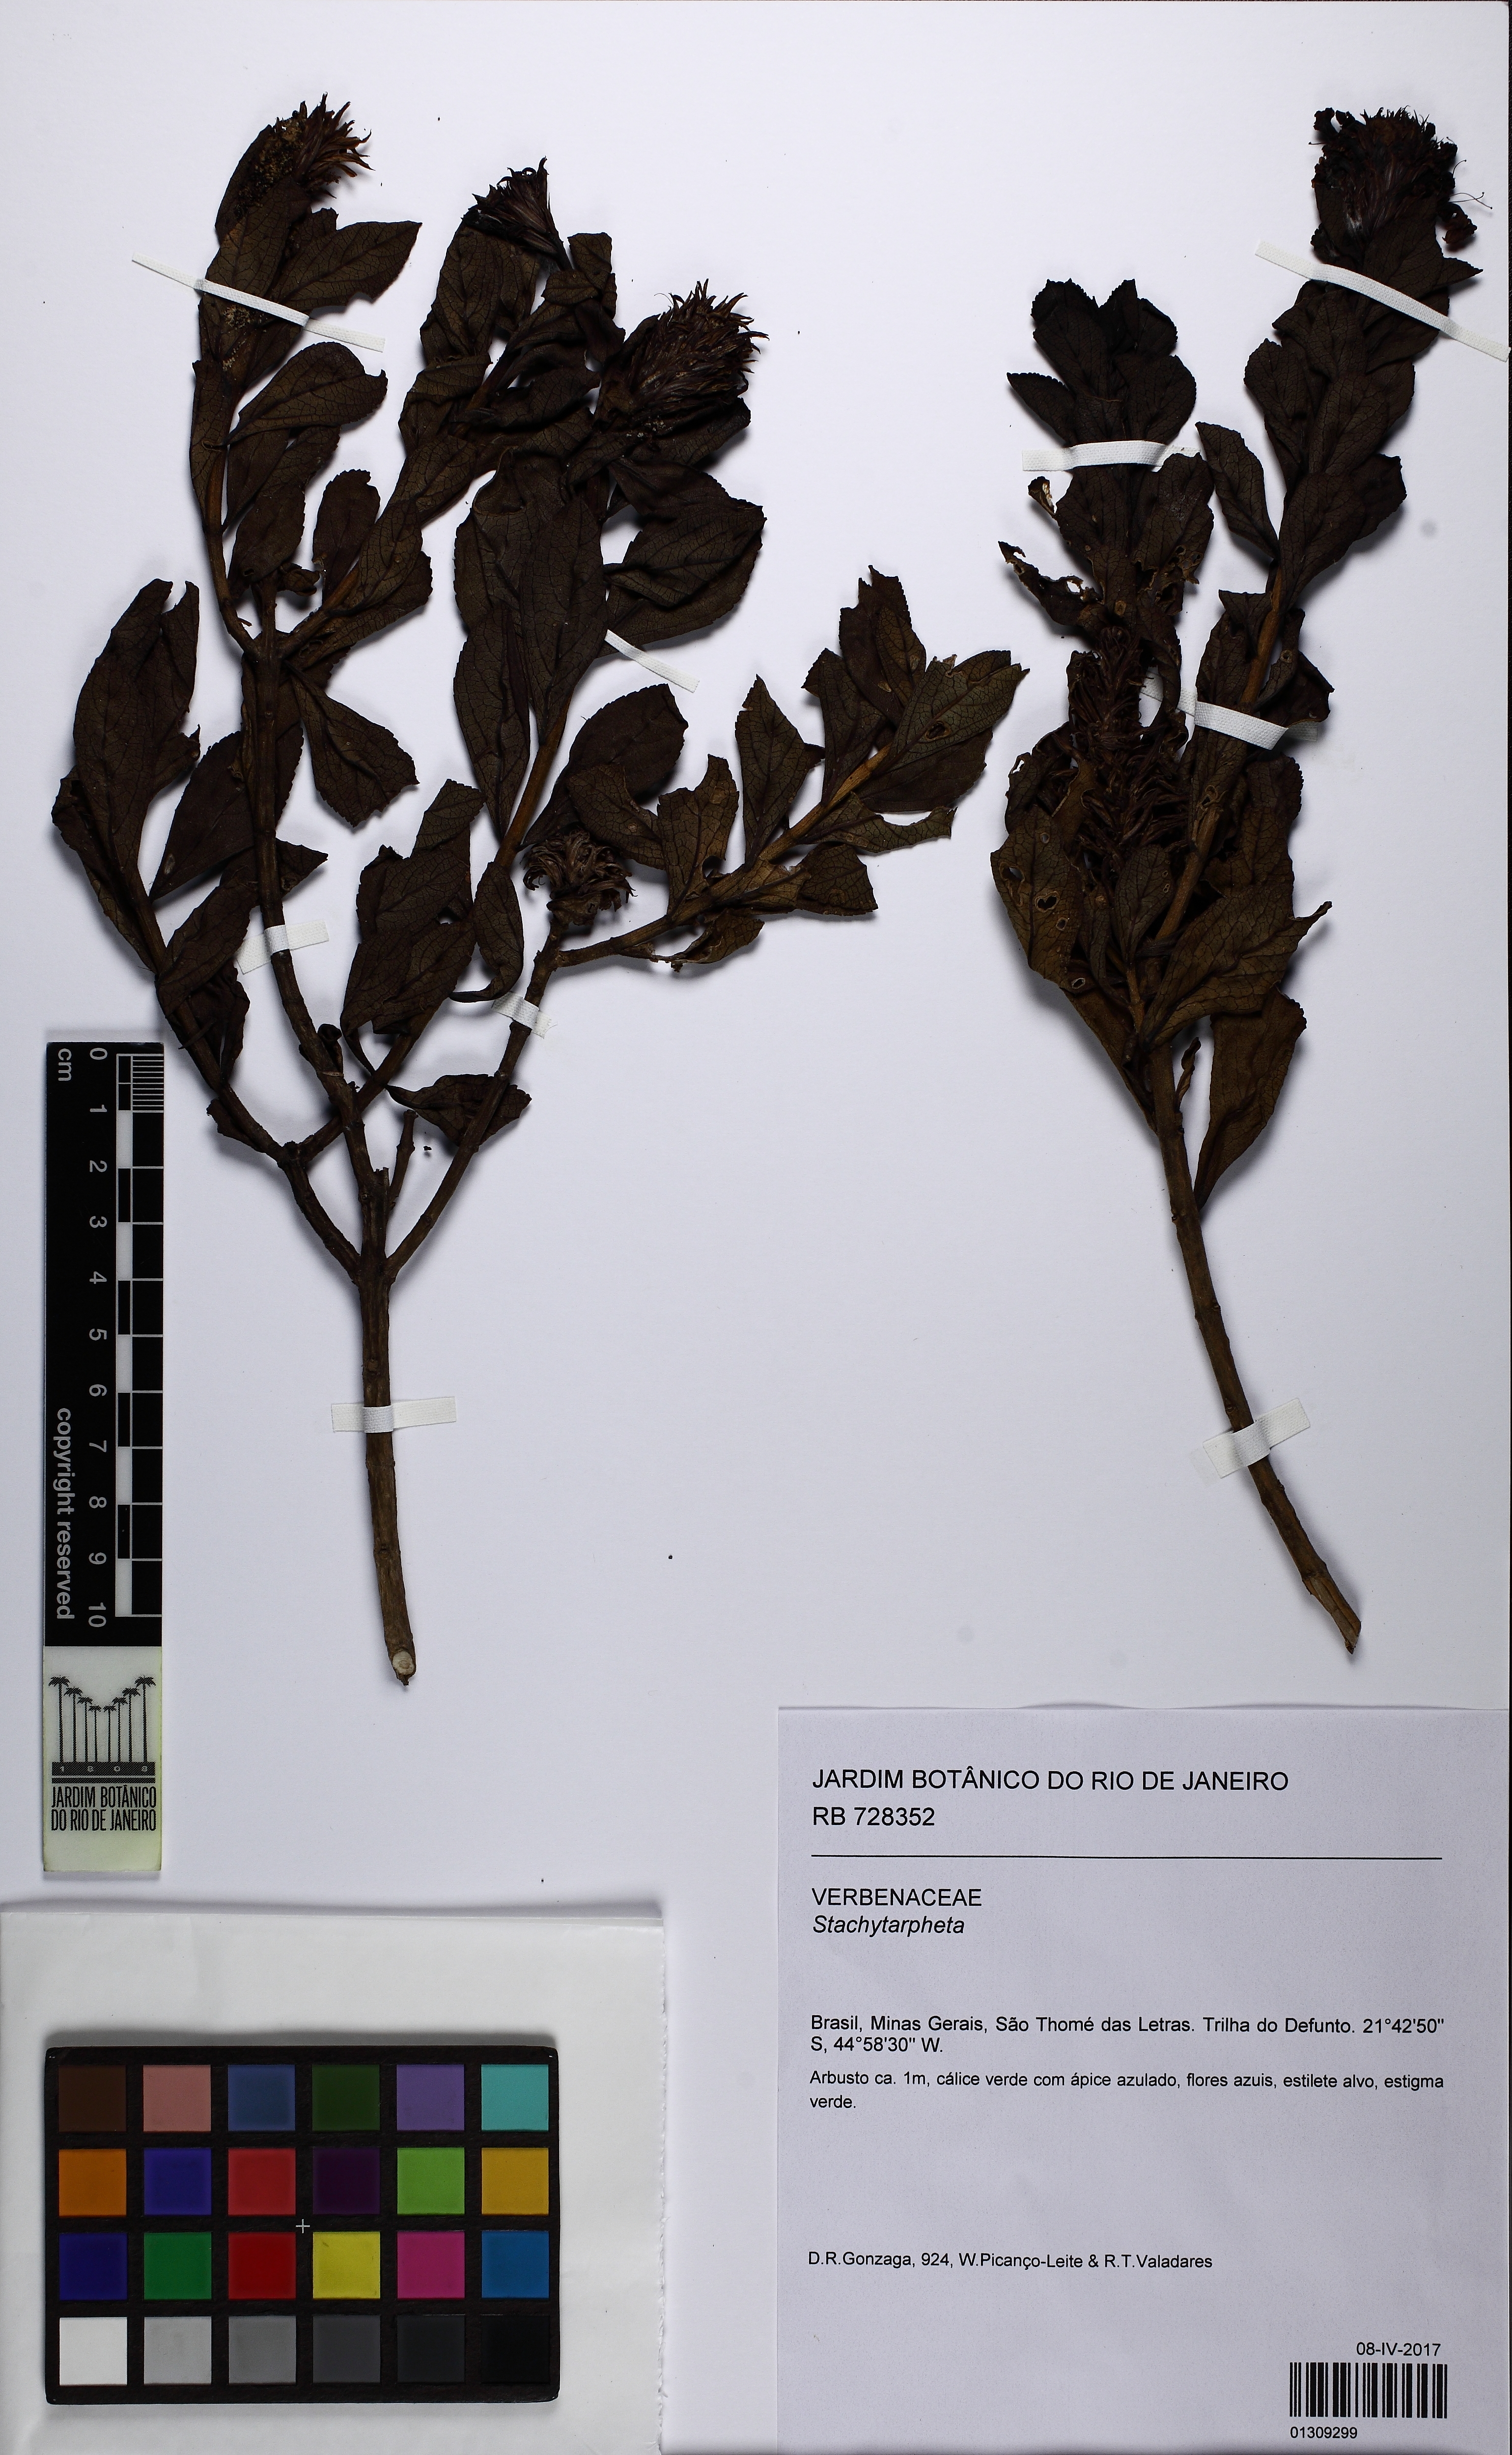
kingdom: Plantae
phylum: Tracheophyta
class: Magnoliopsida
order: Lamiales
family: Verbenaceae
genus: Stachytarpheta
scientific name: Stachytarpheta sellowiana
